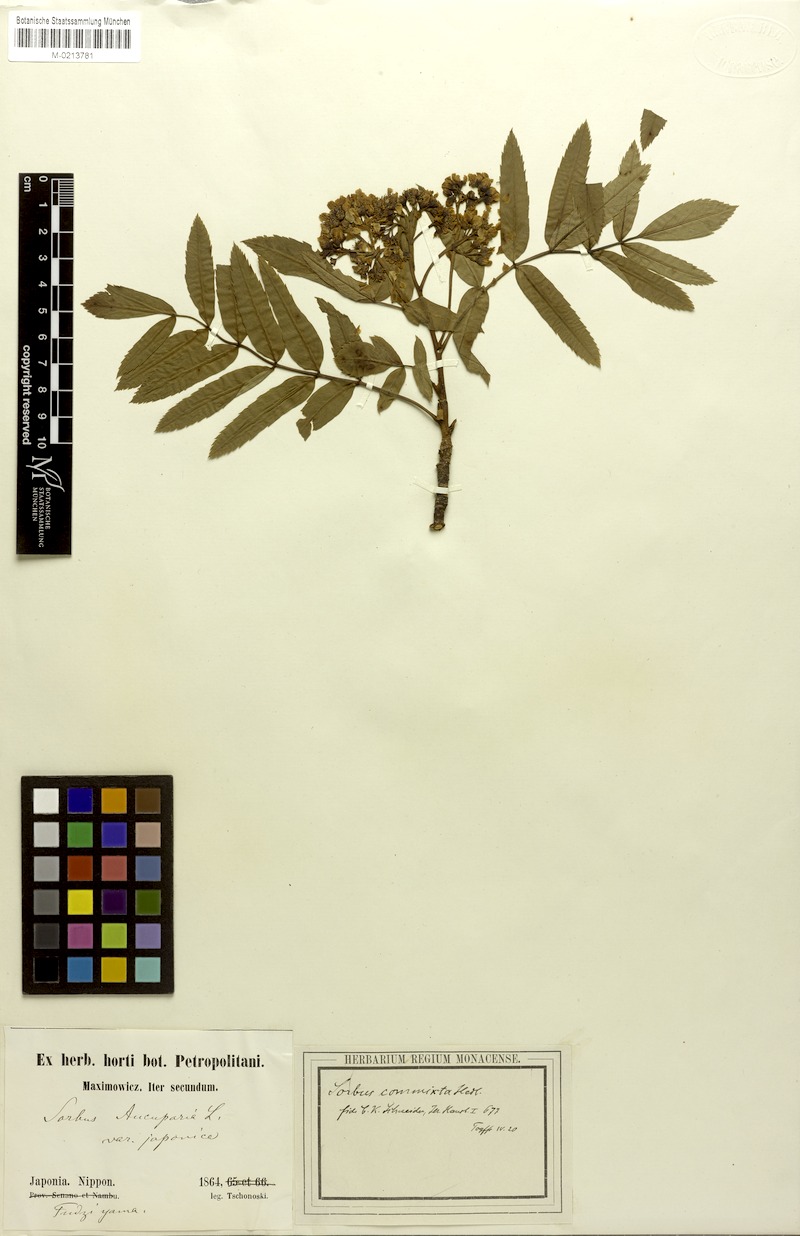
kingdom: Plantae
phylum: Tracheophyta
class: Magnoliopsida
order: Rosales
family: Rosaceae
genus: Sorbus
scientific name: Sorbus commixta
